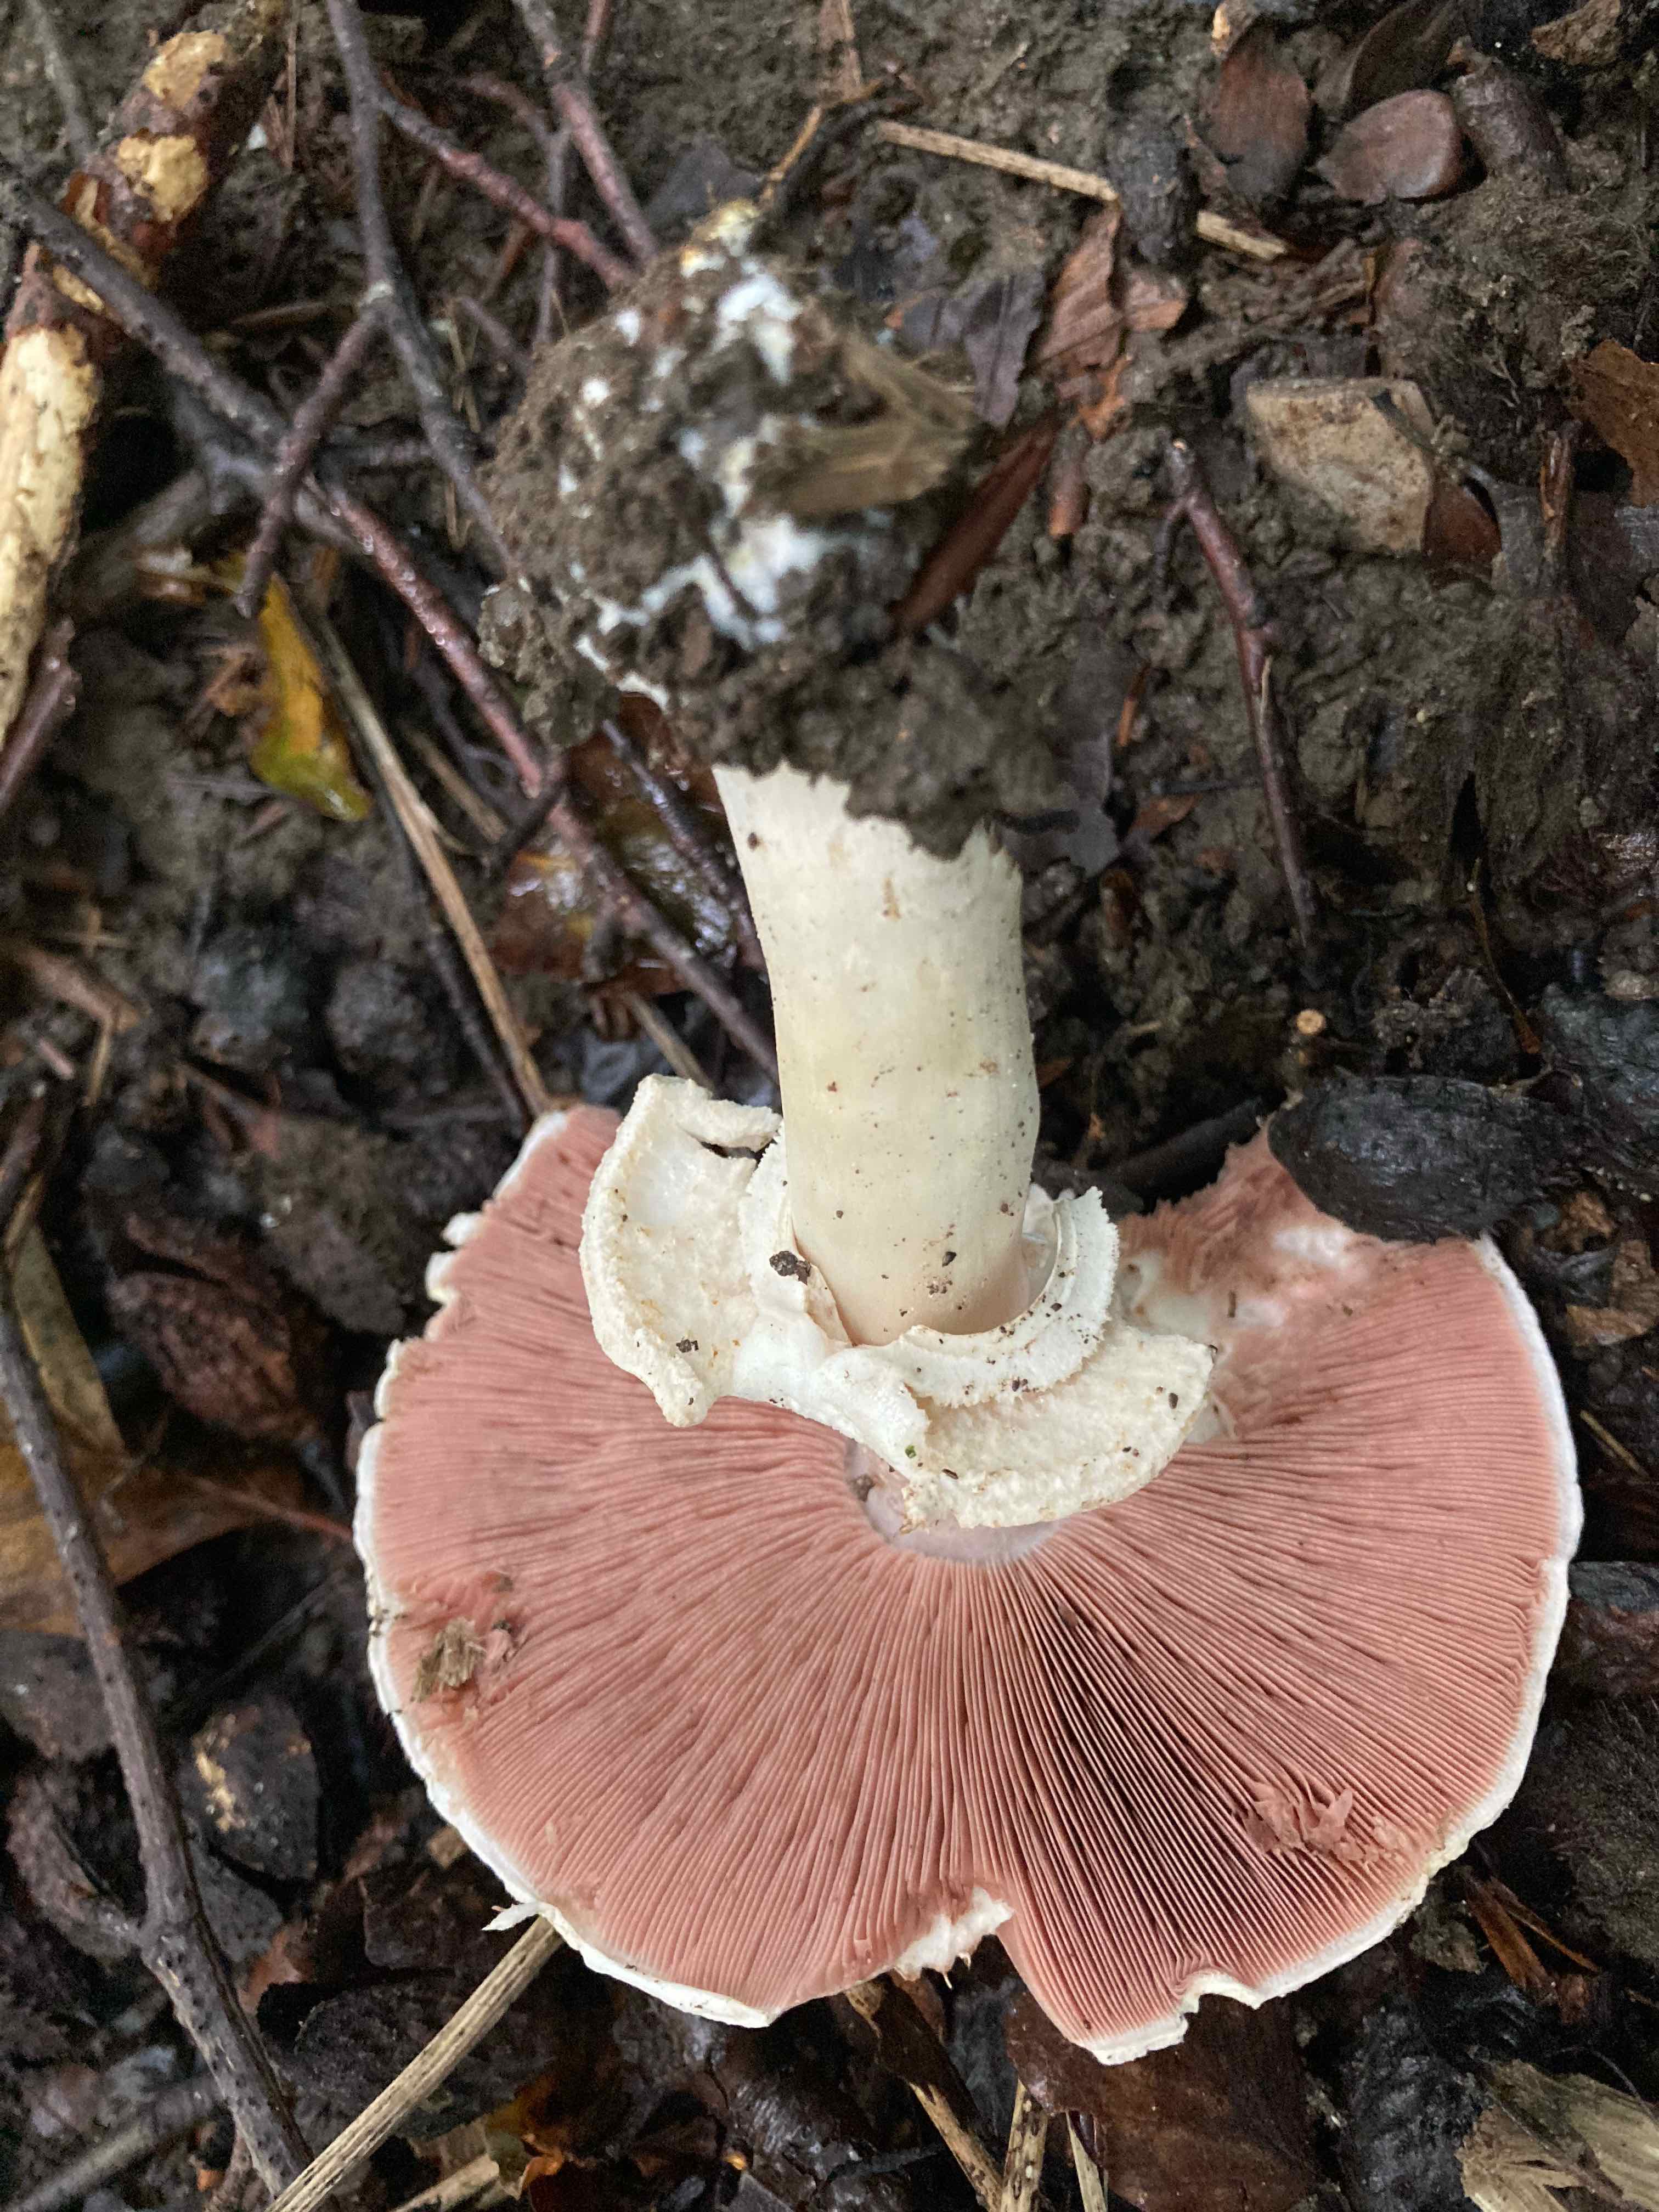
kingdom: Fungi
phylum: Basidiomycota
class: Agaricomycetes
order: Agaricales
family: Agaricaceae
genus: Agaricus
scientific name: Agaricus
